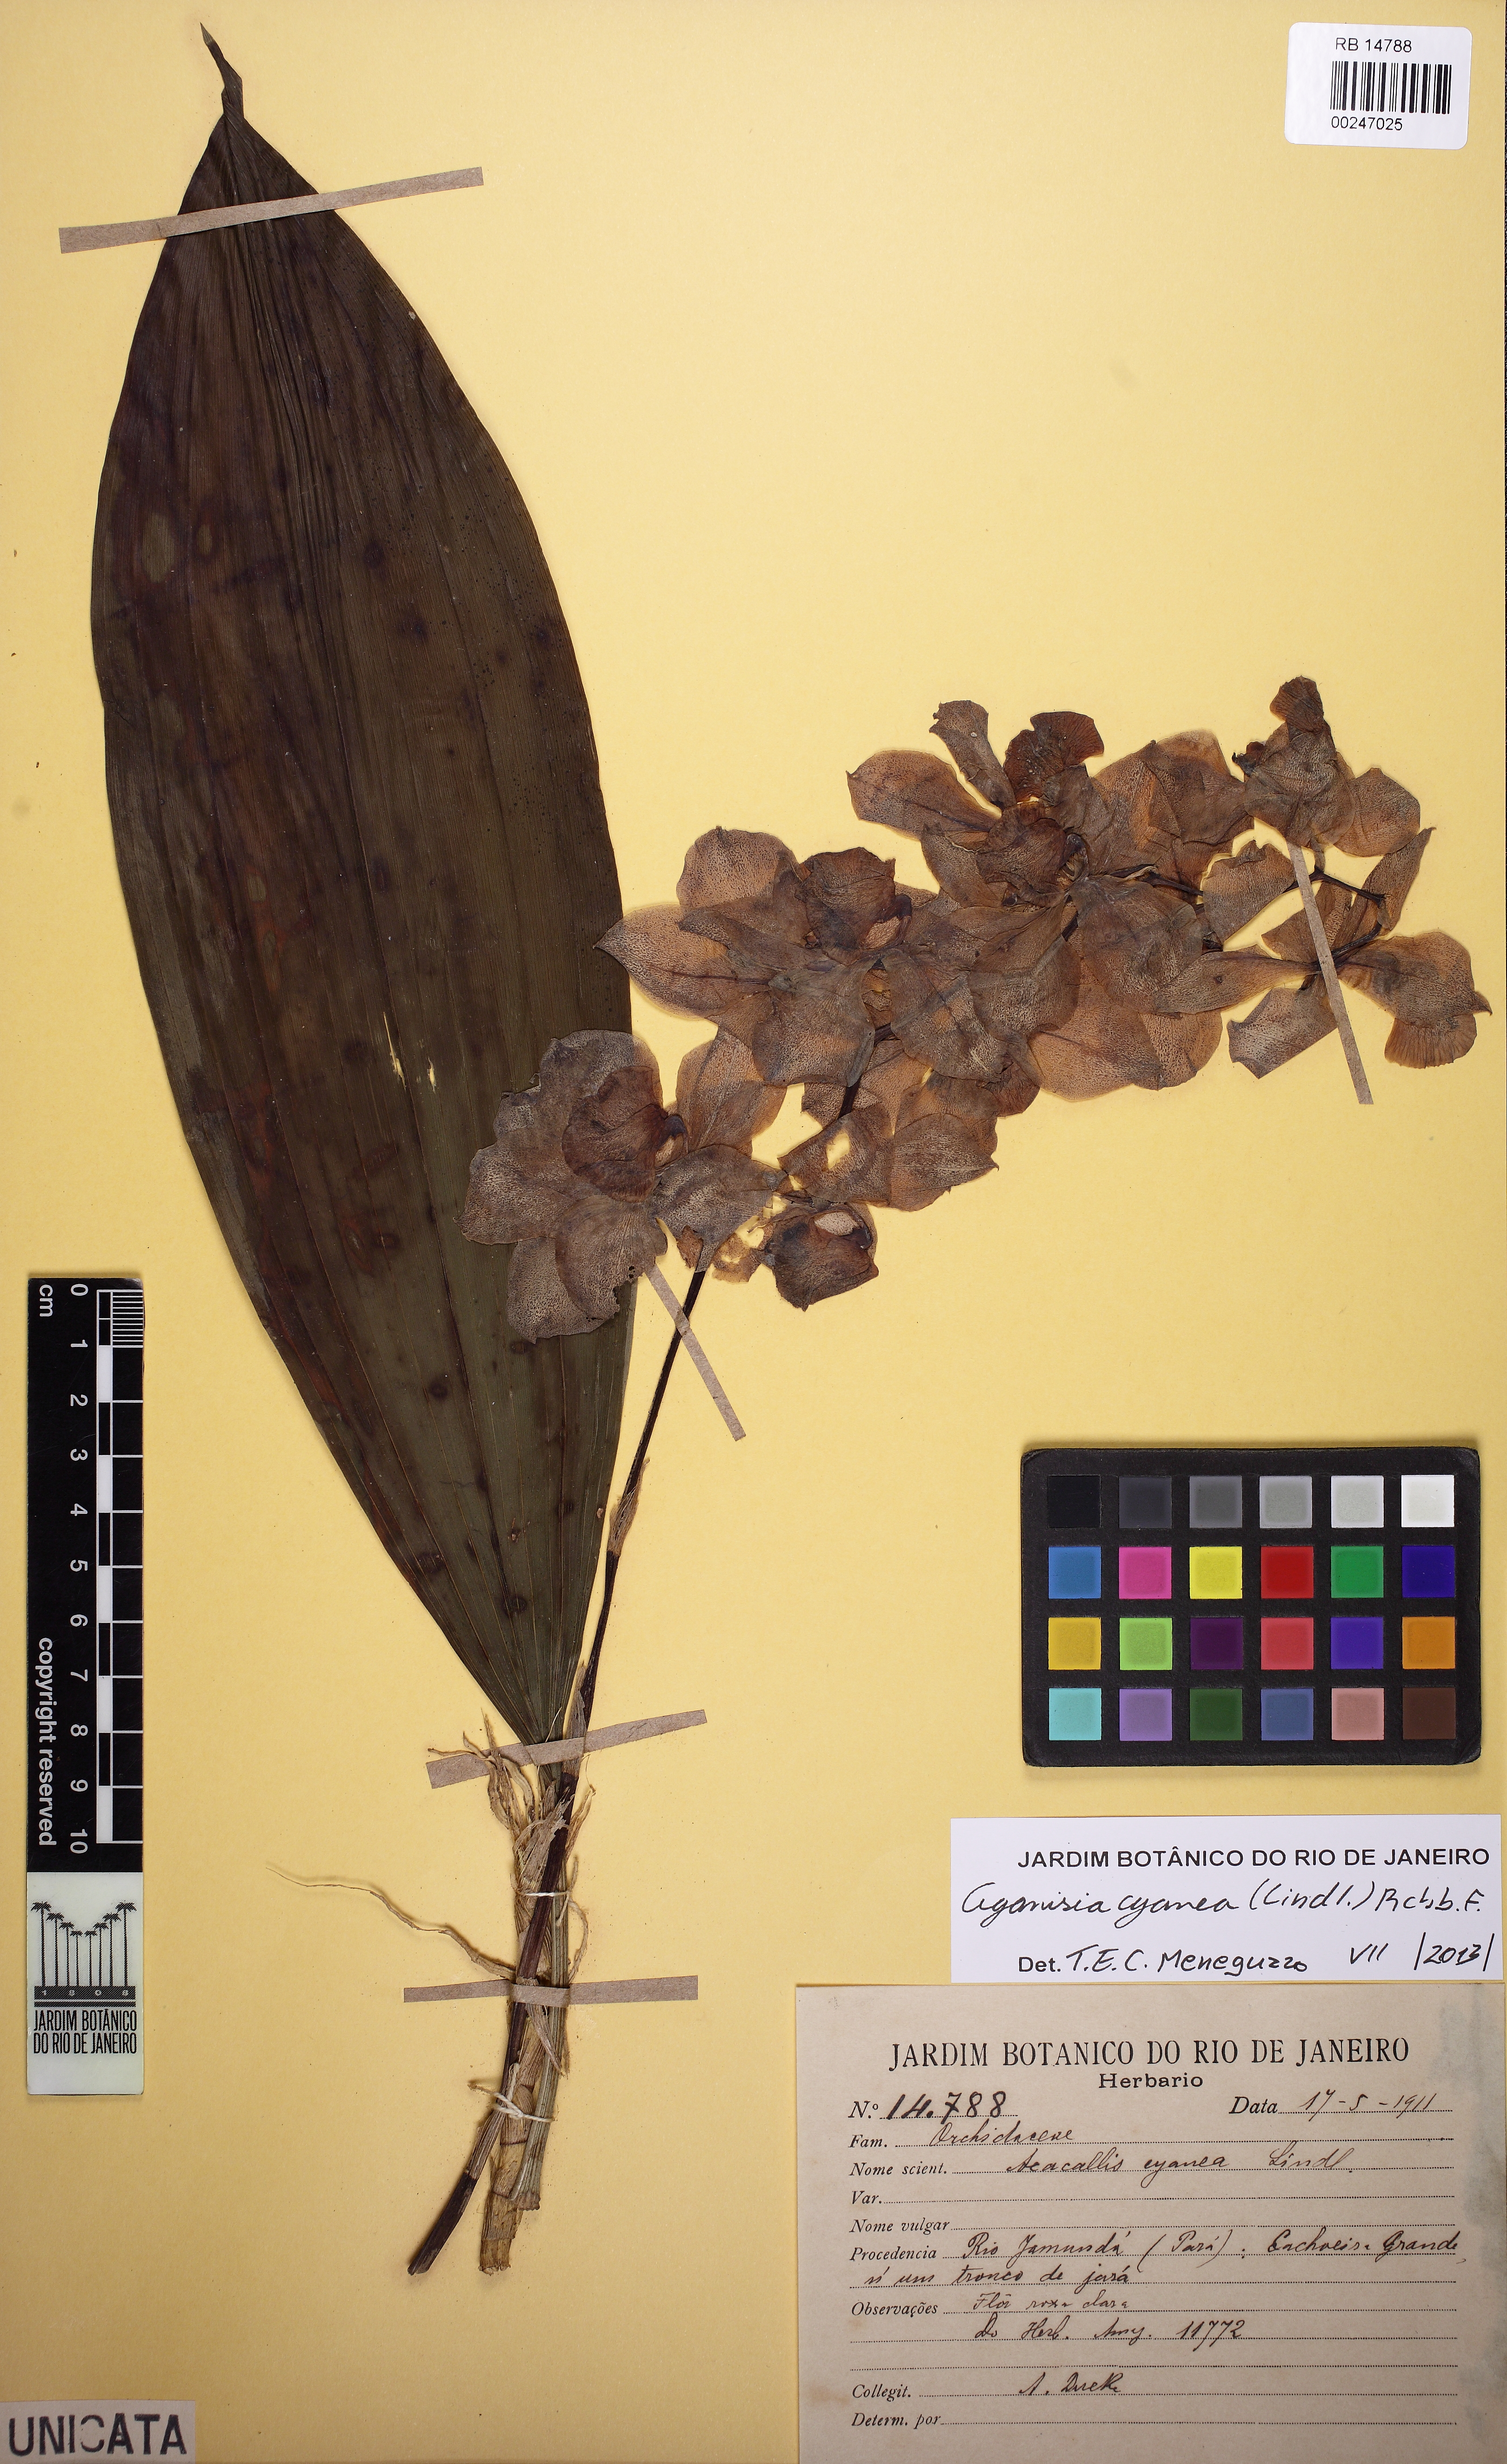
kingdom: Plantae
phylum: Tracheophyta
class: Liliopsida
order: Asparagales
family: Orchidaceae
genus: Aganisia
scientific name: Aganisia cyanea
